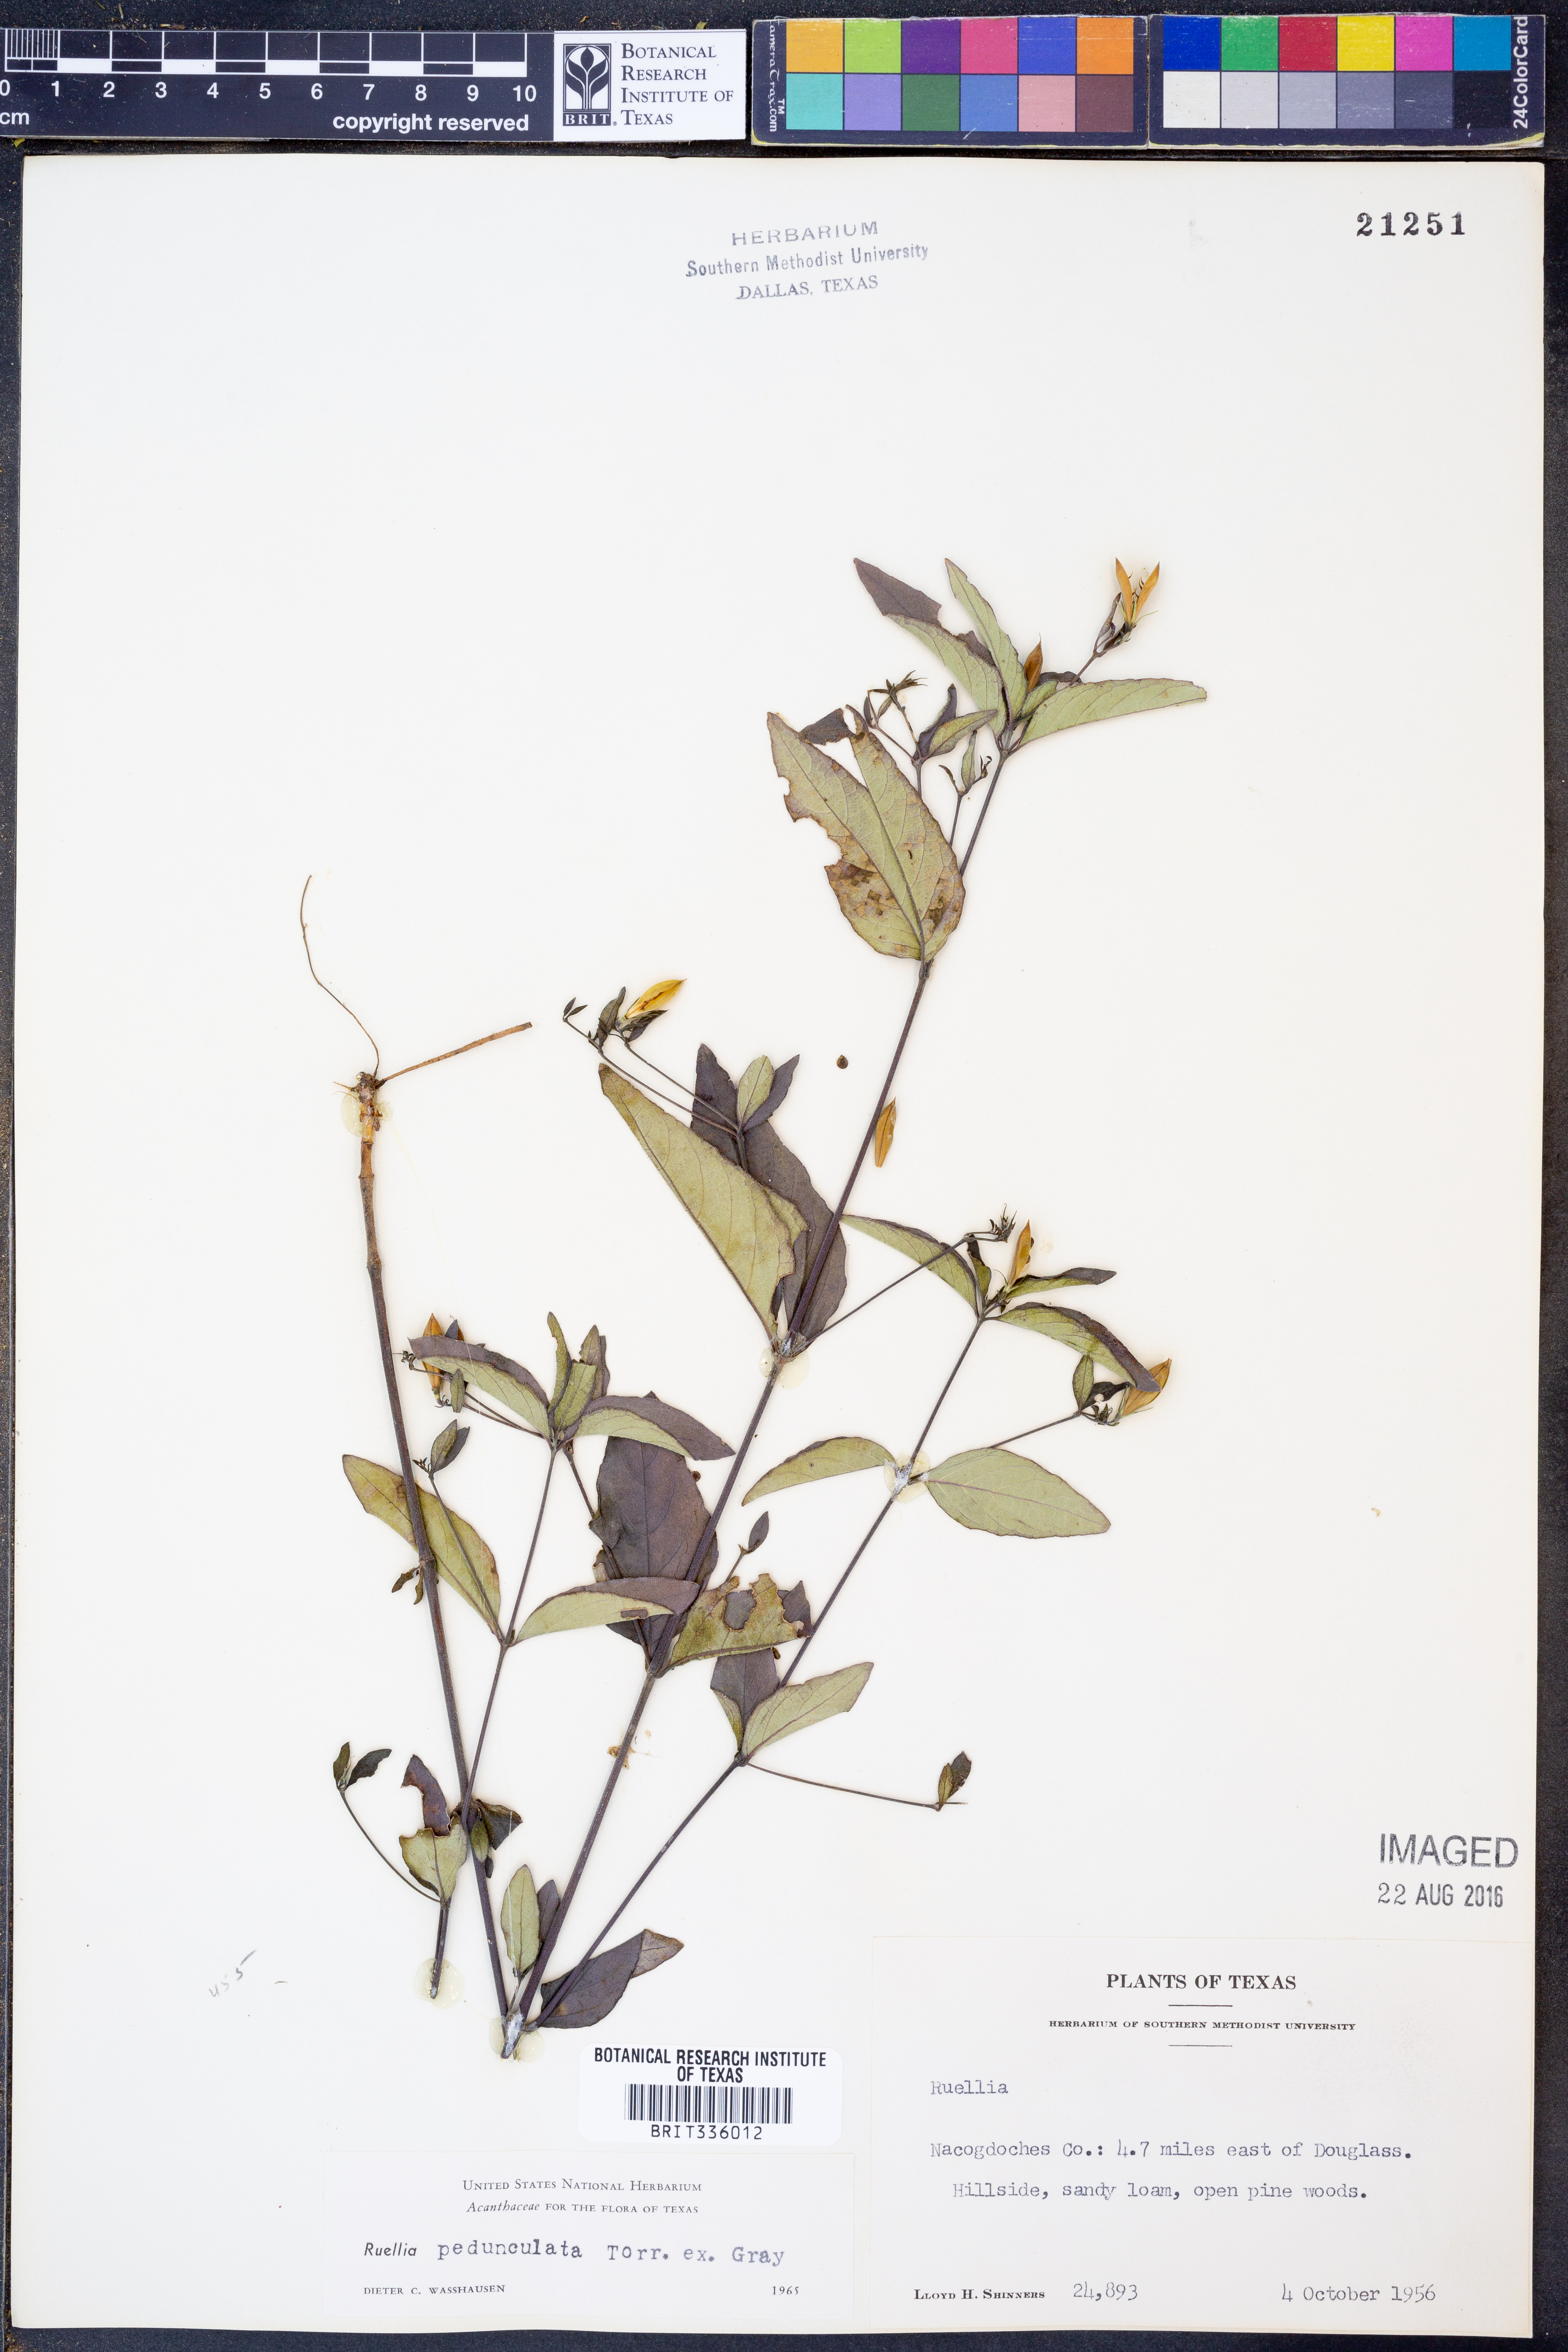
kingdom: Plantae
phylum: Tracheophyta
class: Magnoliopsida
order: Lamiales
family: Acanthaceae
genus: Ruellia
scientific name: Ruellia pedunculata
